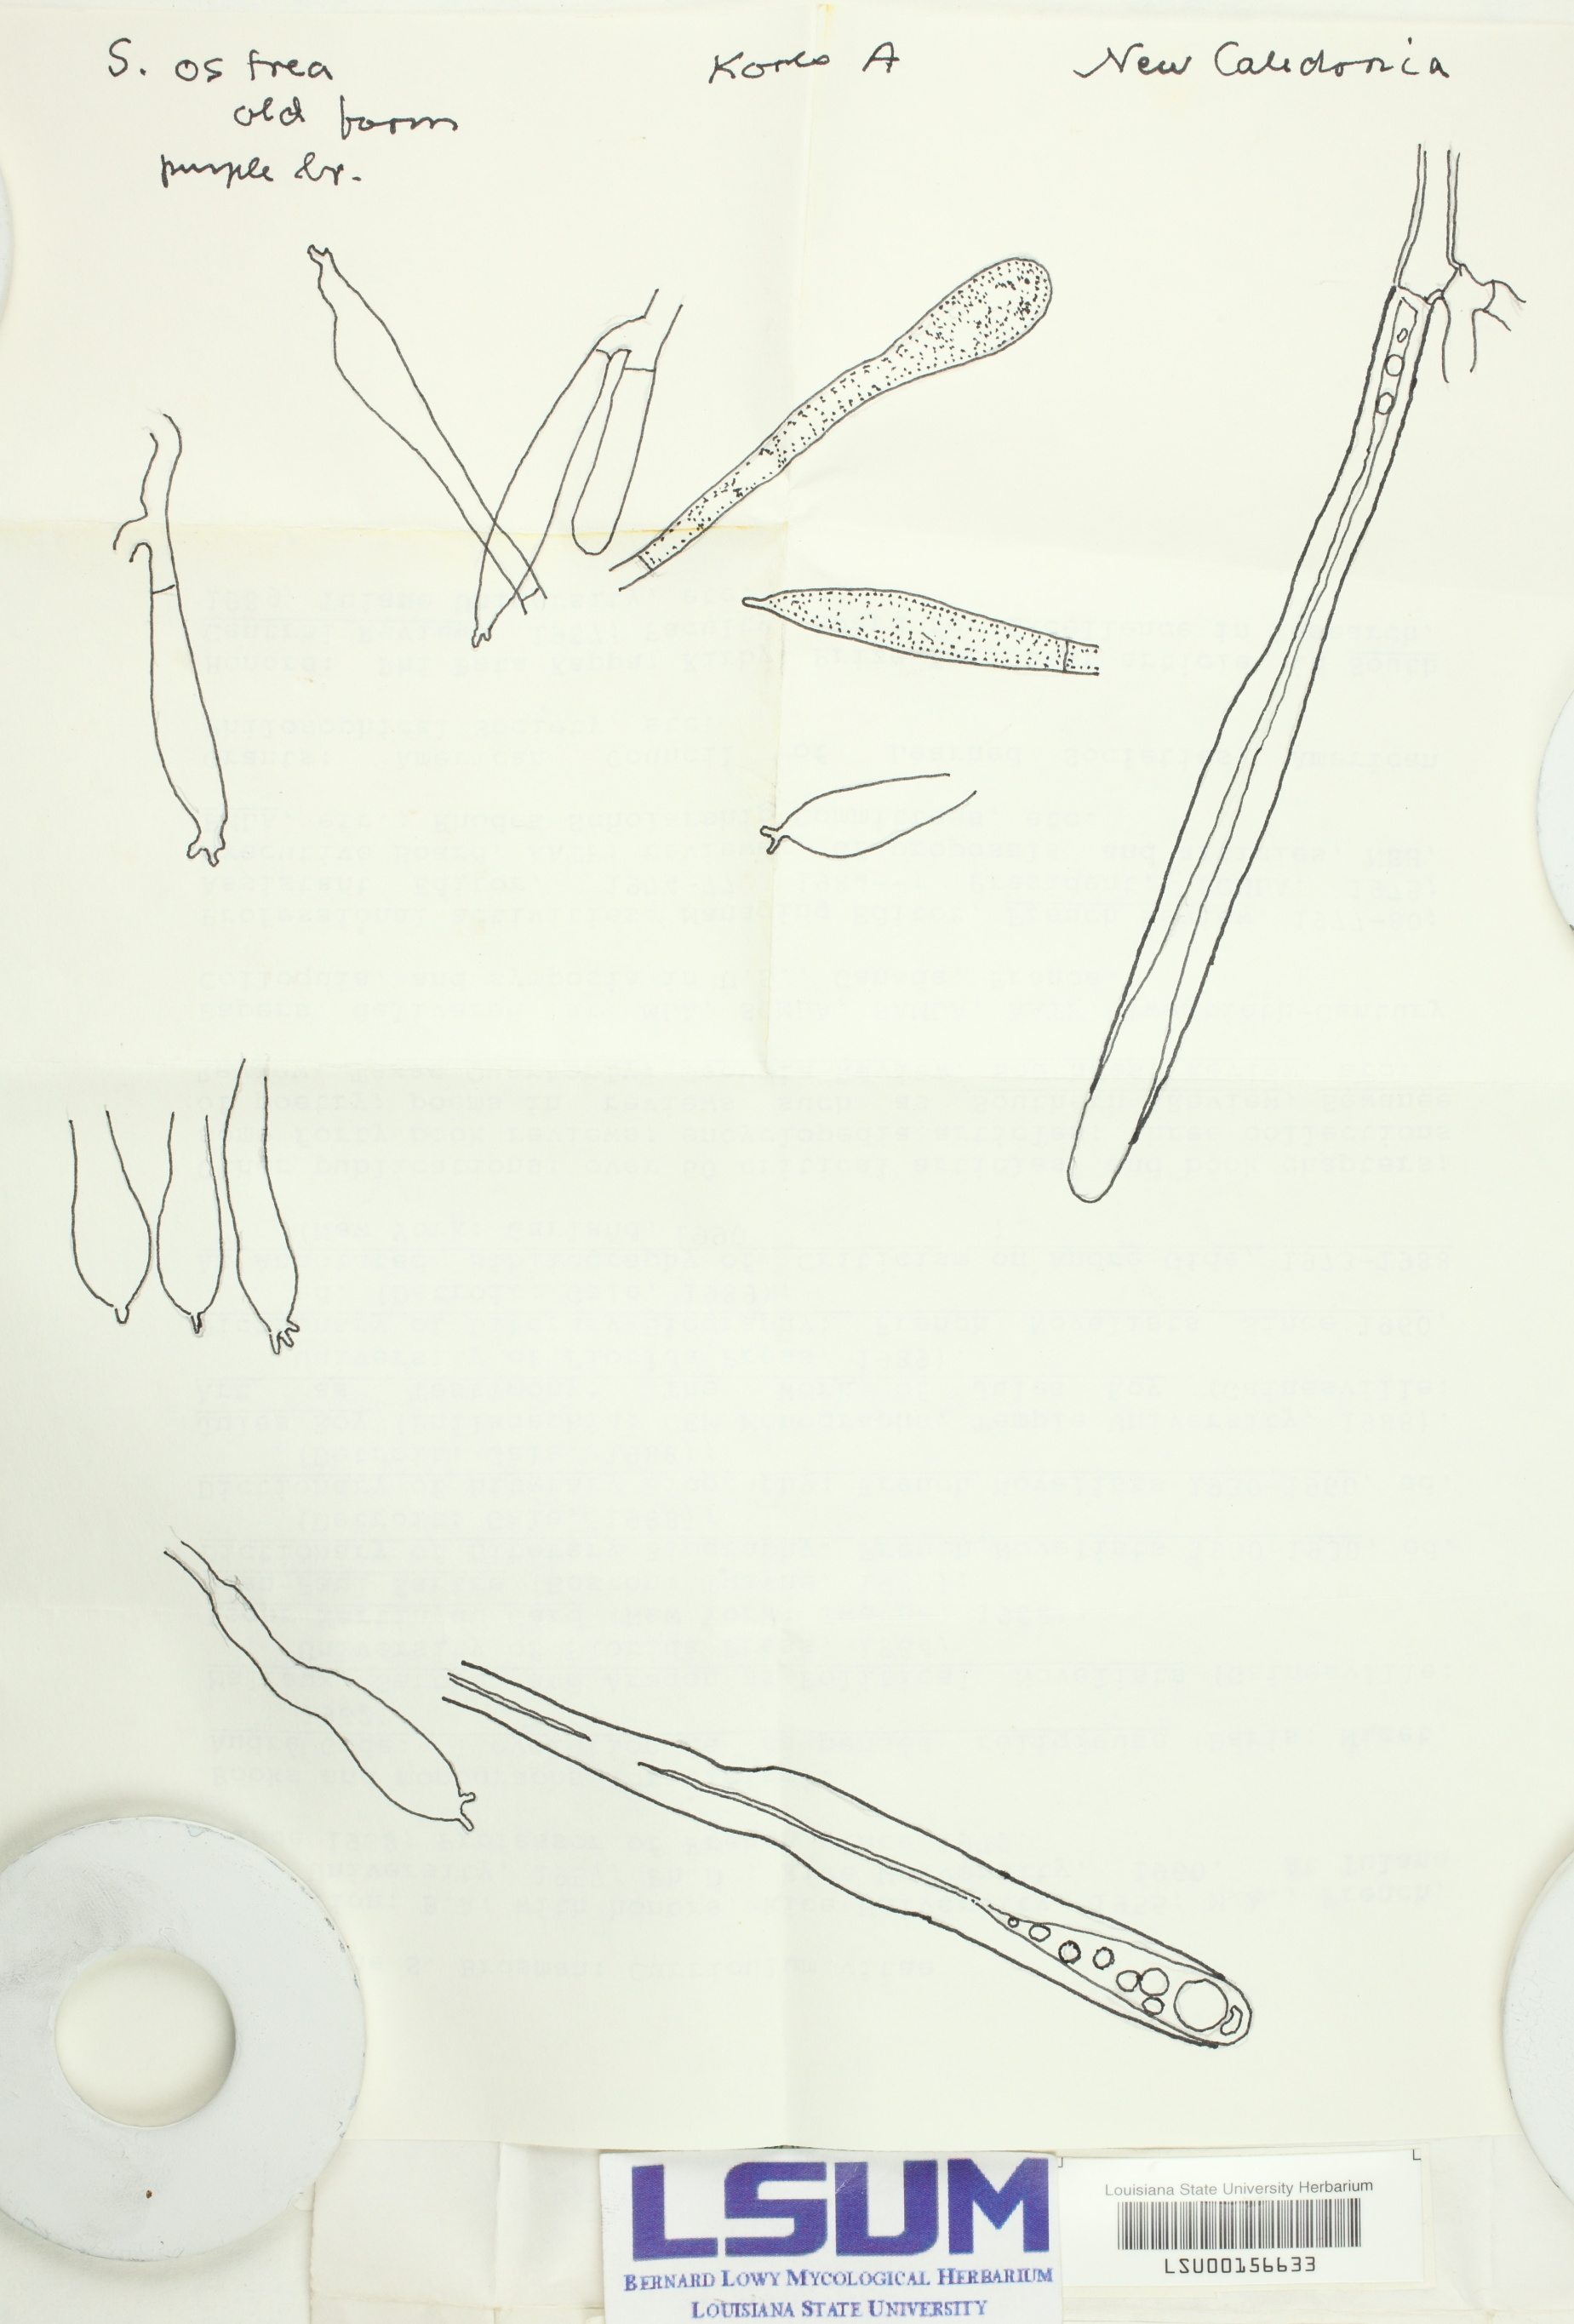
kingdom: Fungi
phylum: Basidiomycota
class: Agaricomycetes
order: Russulales
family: Stereaceae
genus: Stereum
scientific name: Stereum ostrea
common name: False turkeytail
